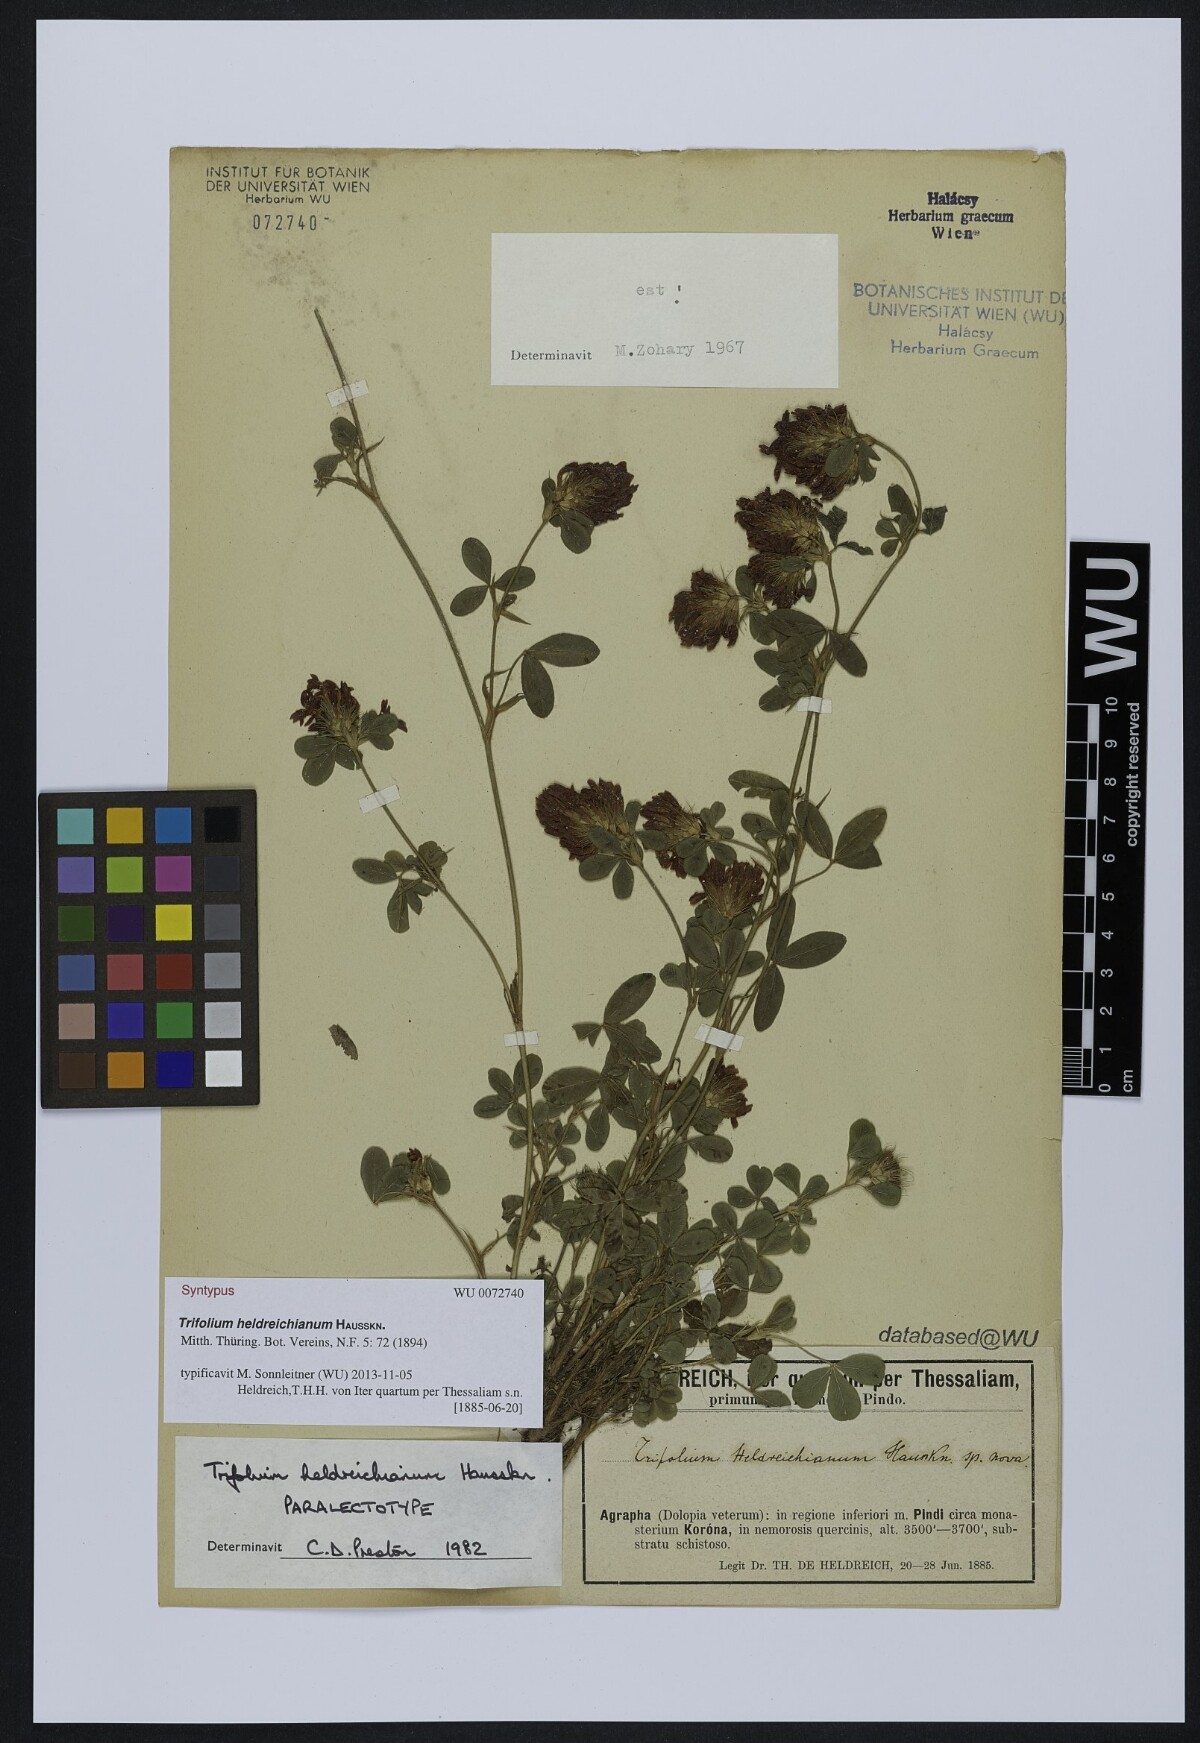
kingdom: Plantae
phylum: Tracheophyta
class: Magnoliopsida
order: Fabales
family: Fabaceae
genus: Trifolium
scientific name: Trifolium heldreichianum
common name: Heldreich's clover
